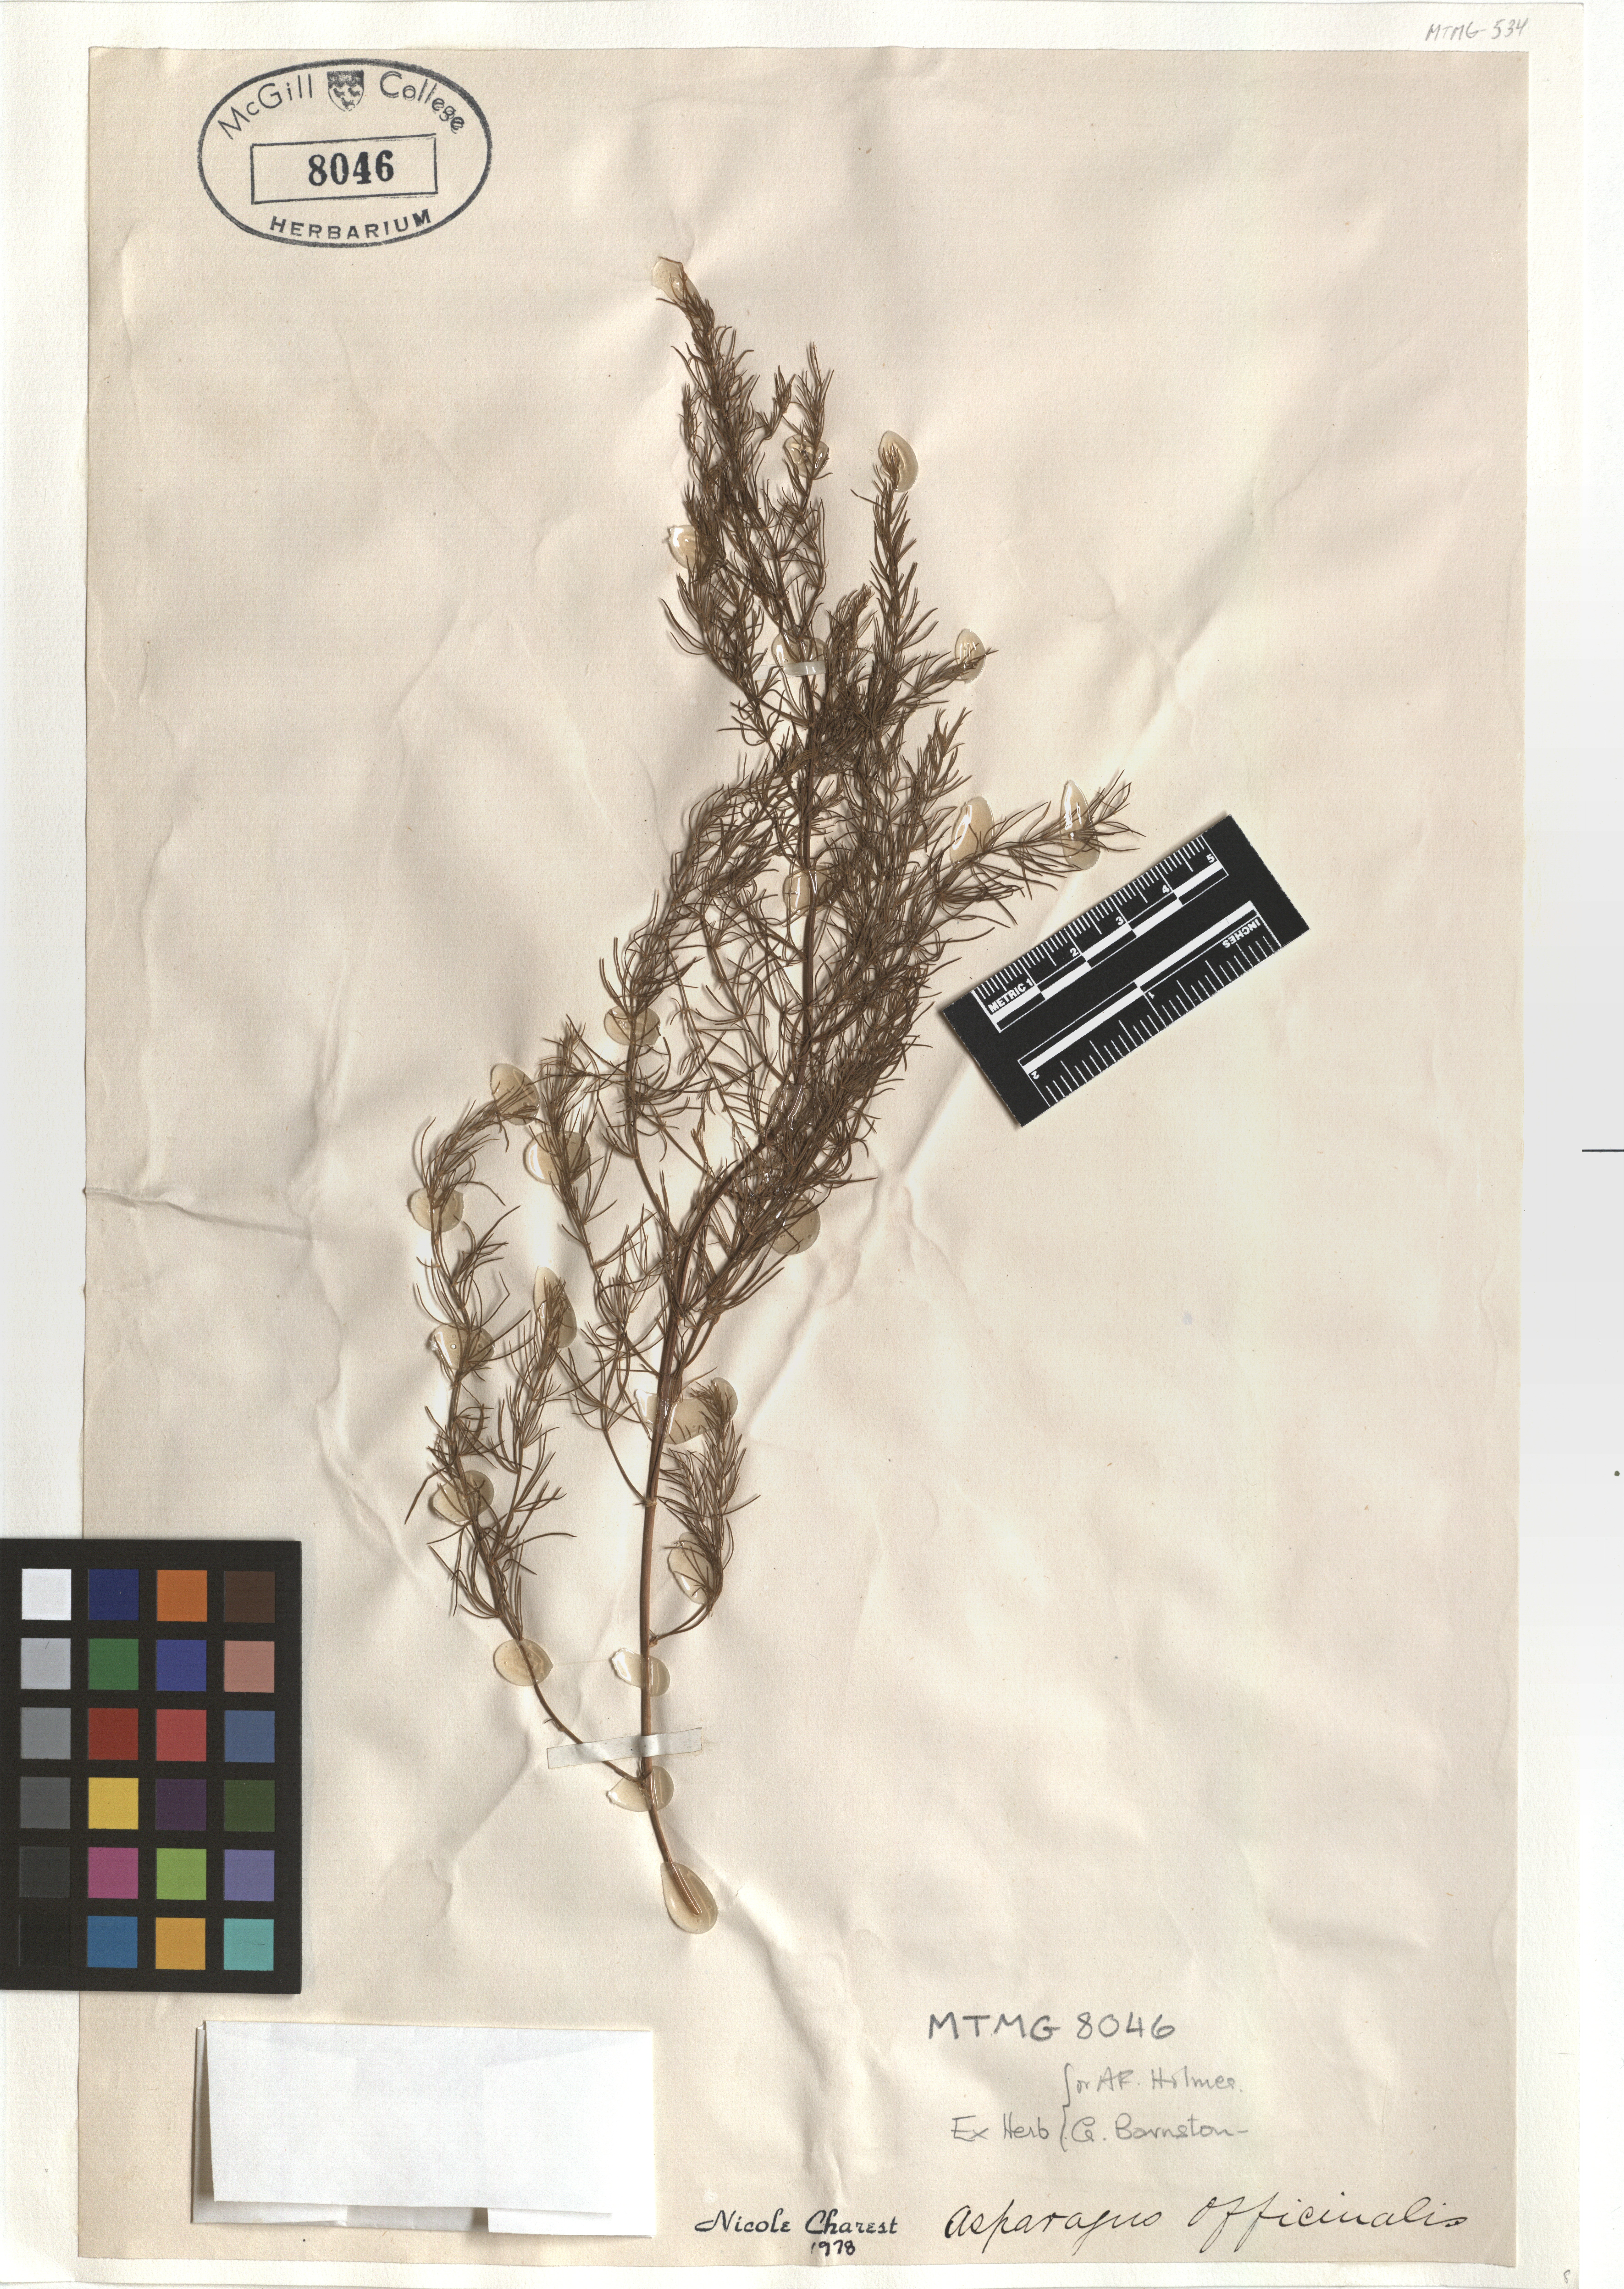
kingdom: Plantae
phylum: Tracheophyta
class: Liliopsida
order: Asparagales
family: Asparagaceae
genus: Asparagus
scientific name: Asparagus officinalis
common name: Garden asparagus
